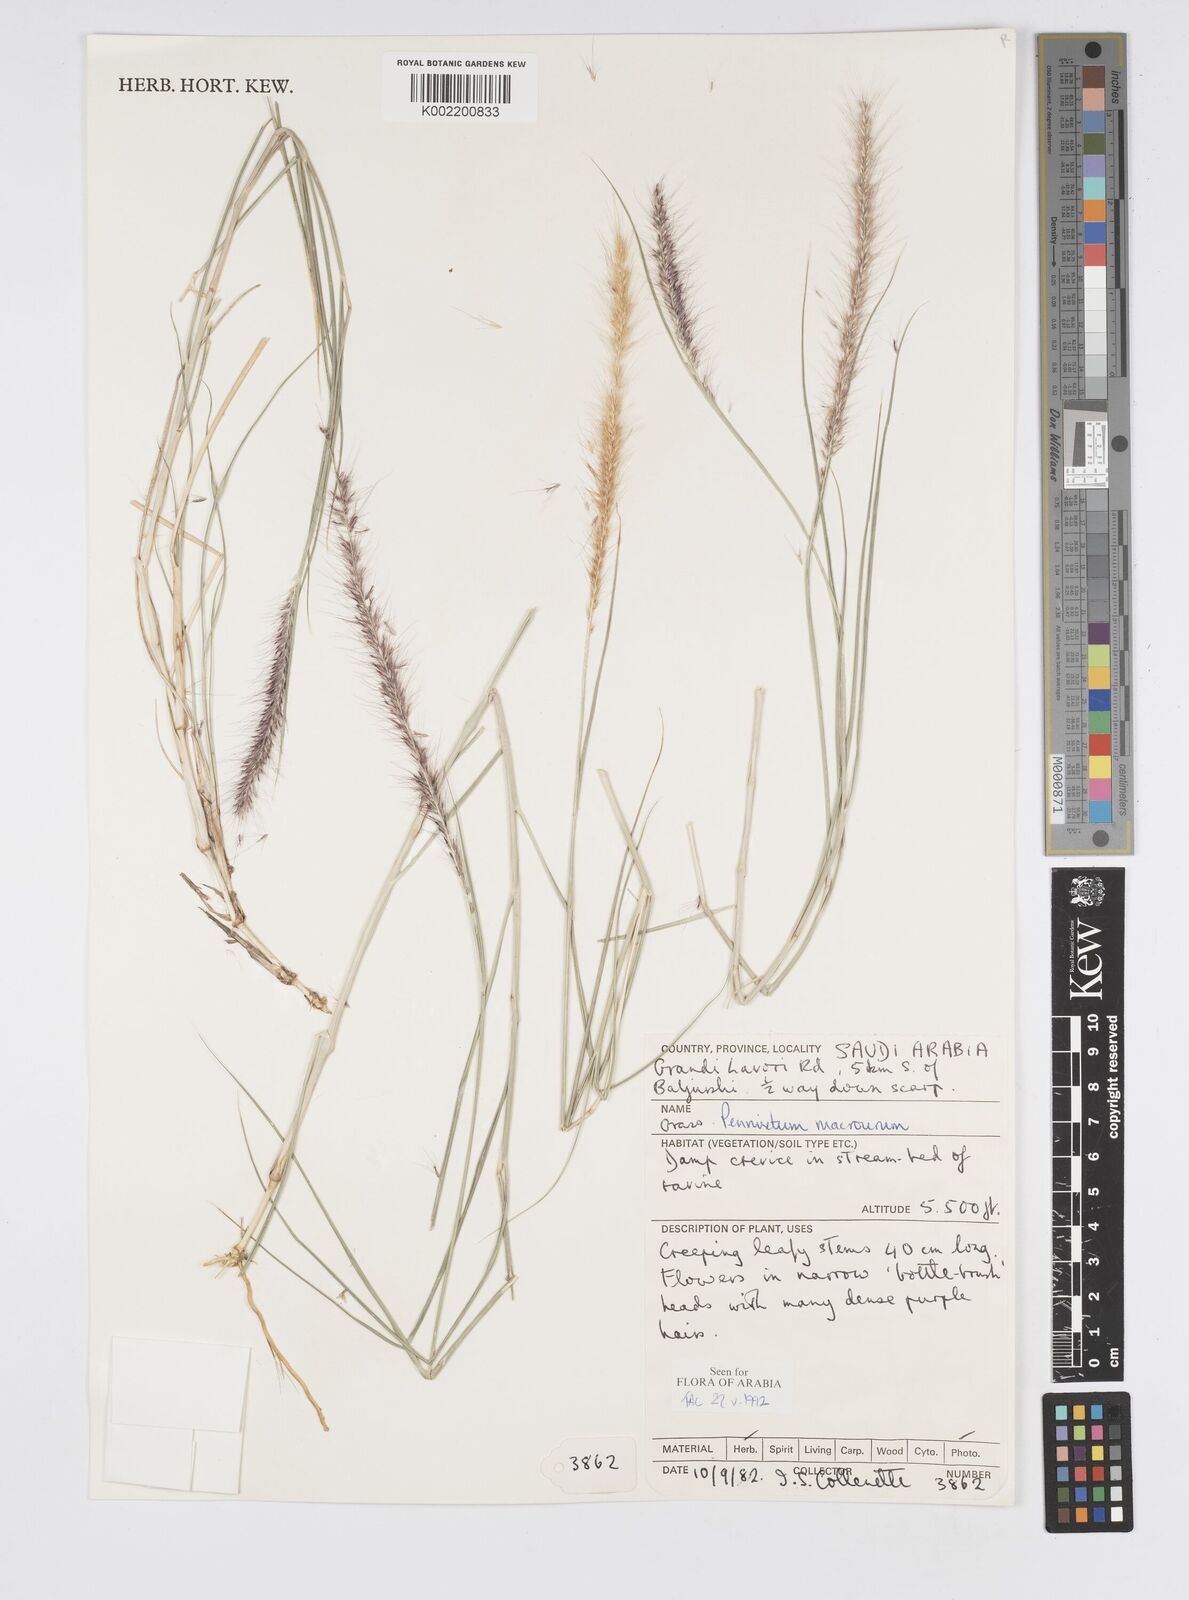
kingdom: Plantae
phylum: Tracheophyta
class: Liliopsida
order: Poales
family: Poaceae
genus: Cenchrus
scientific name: Cenchrus caudatus
